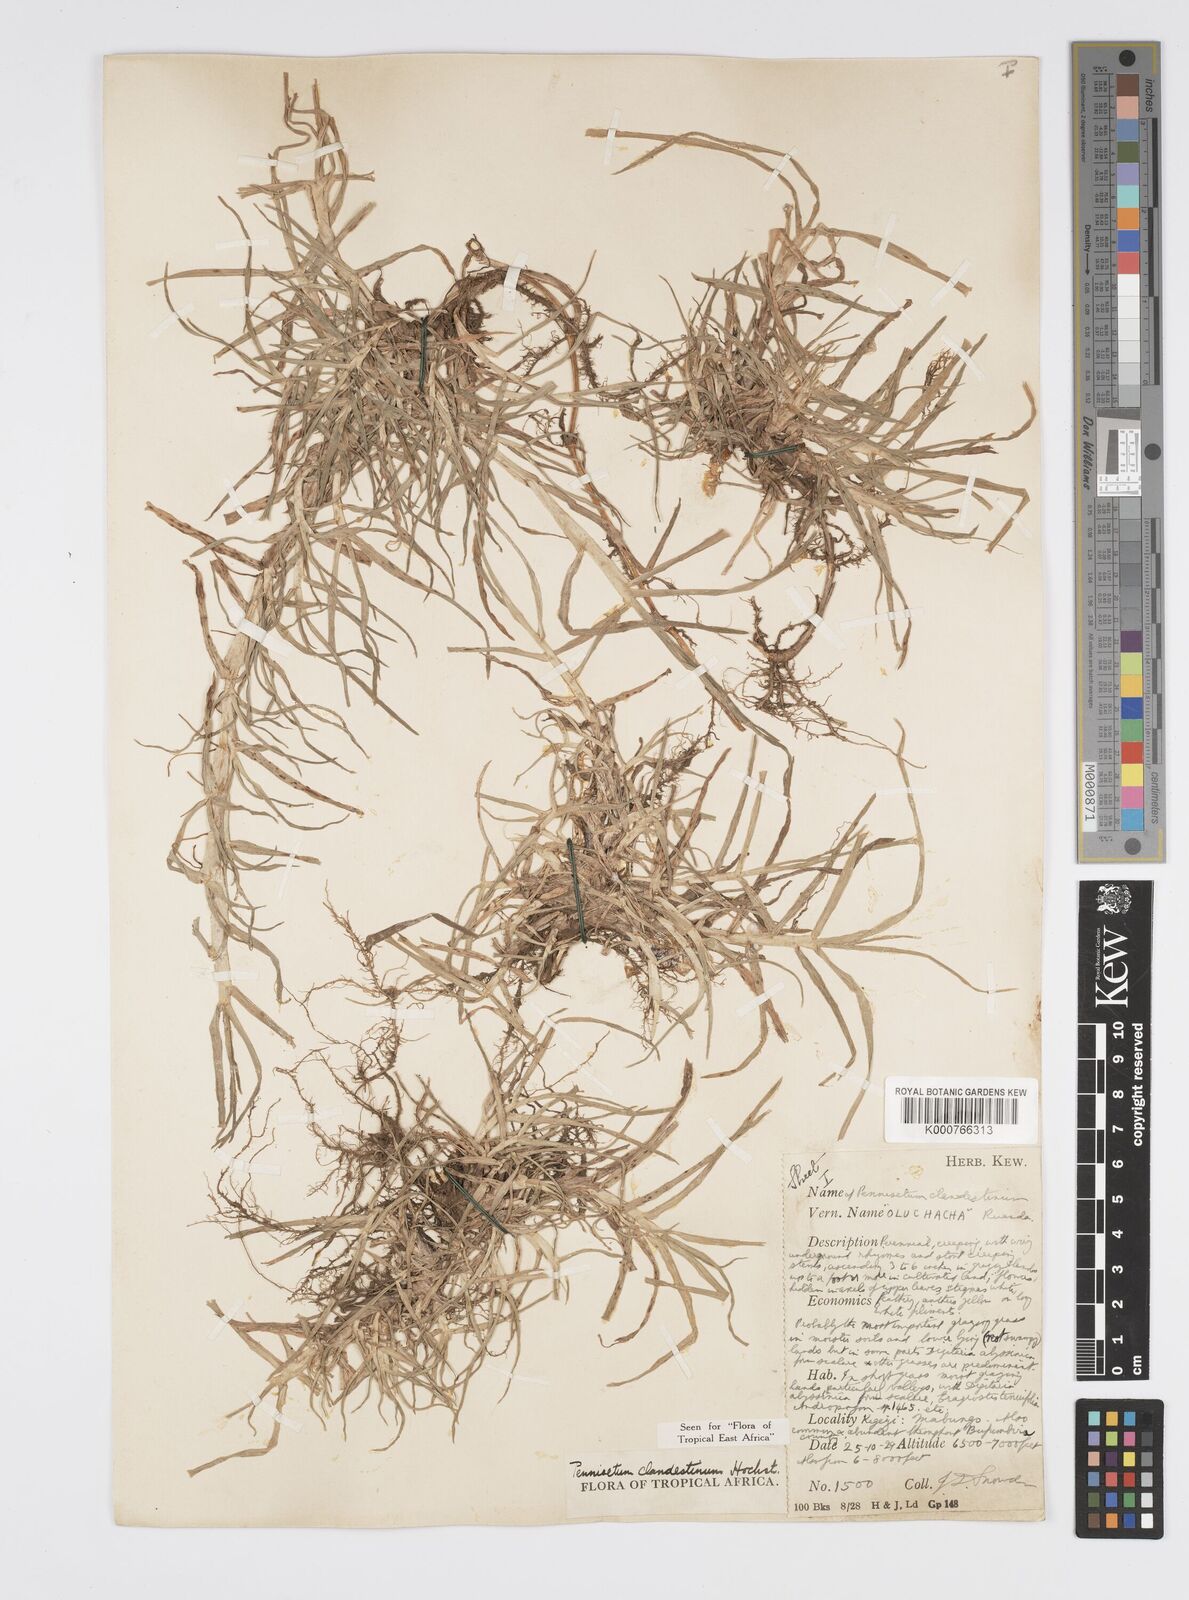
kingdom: Plantae
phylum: Tracheophyta
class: Liliopsida
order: Poales
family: Poaceae
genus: Cenchrus
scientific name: Cenchrus clandestinus
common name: Kikuyugrass
